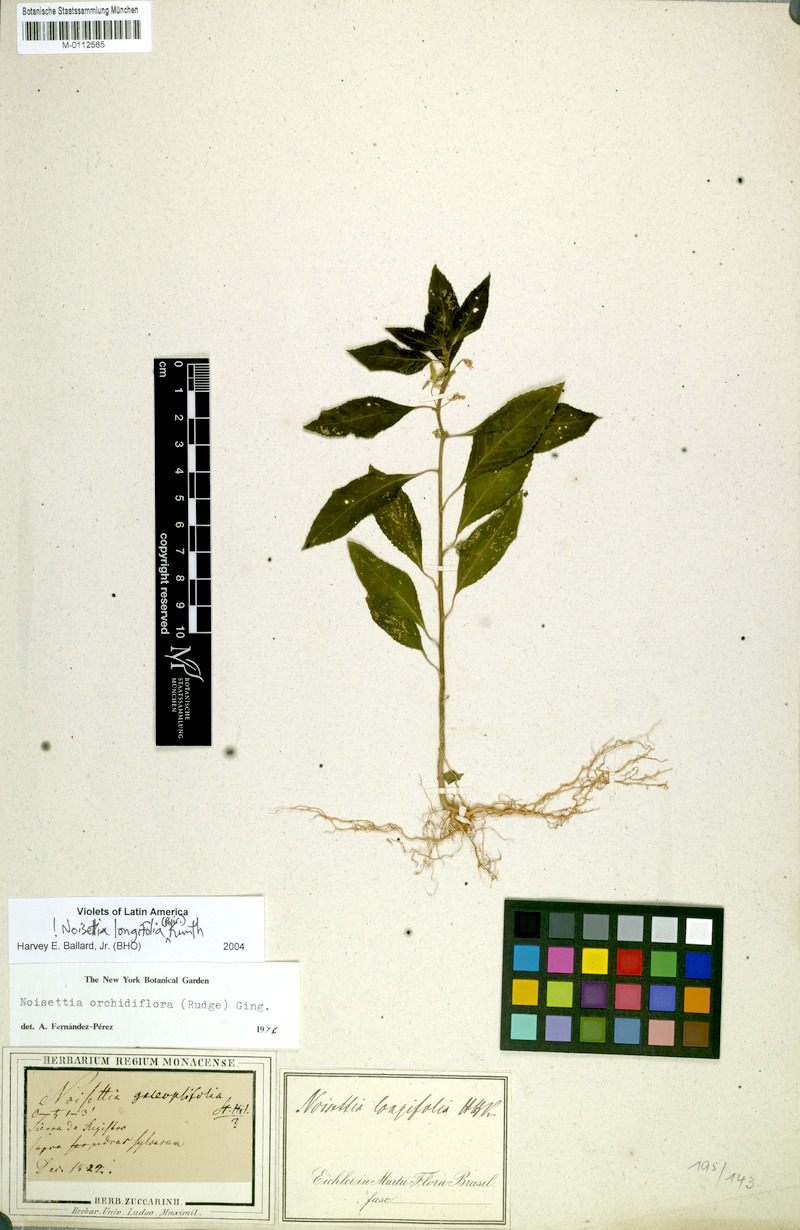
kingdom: Plantae
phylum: Tracheophyta
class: Magnoliopsida
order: Malpighiales
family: Violaceae
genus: Noisettia
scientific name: Noisettia orchidiflora
